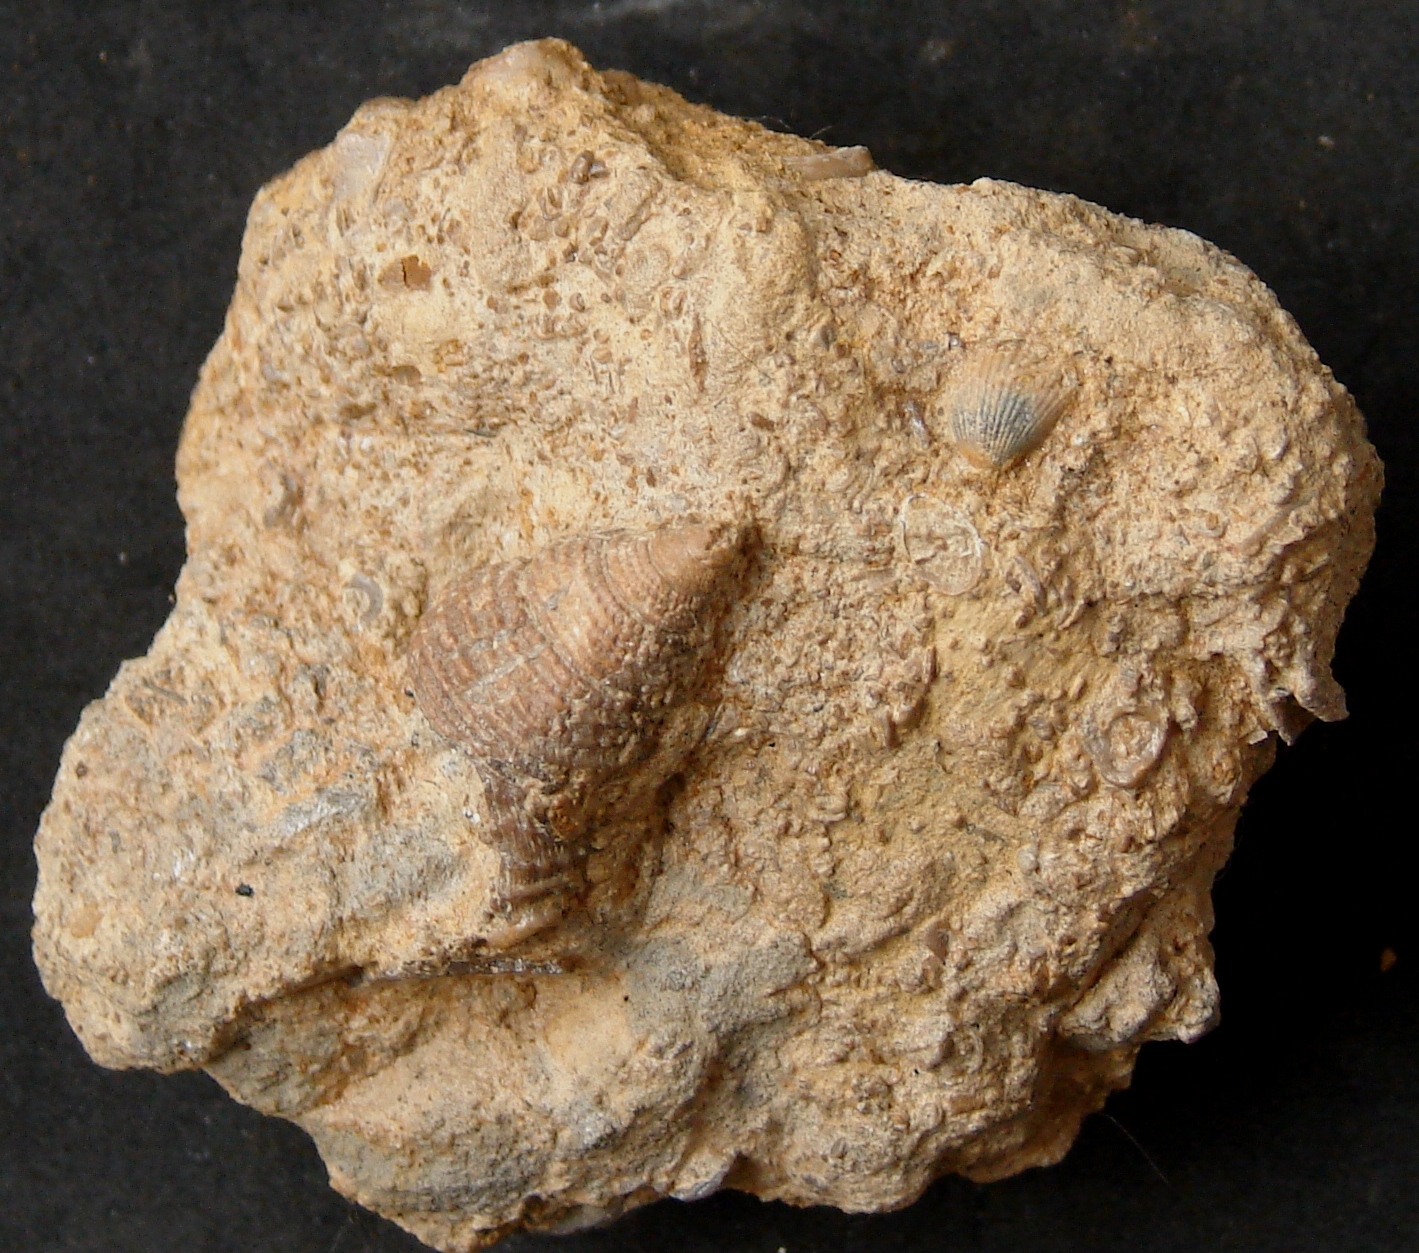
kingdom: Animalia
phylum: Mollusca
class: Gastropoda
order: Pleurotomariida
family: Pleurotomariidae
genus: Bathrotomaria
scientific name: Bathrotomaria Pleurotomaria subreticulata
